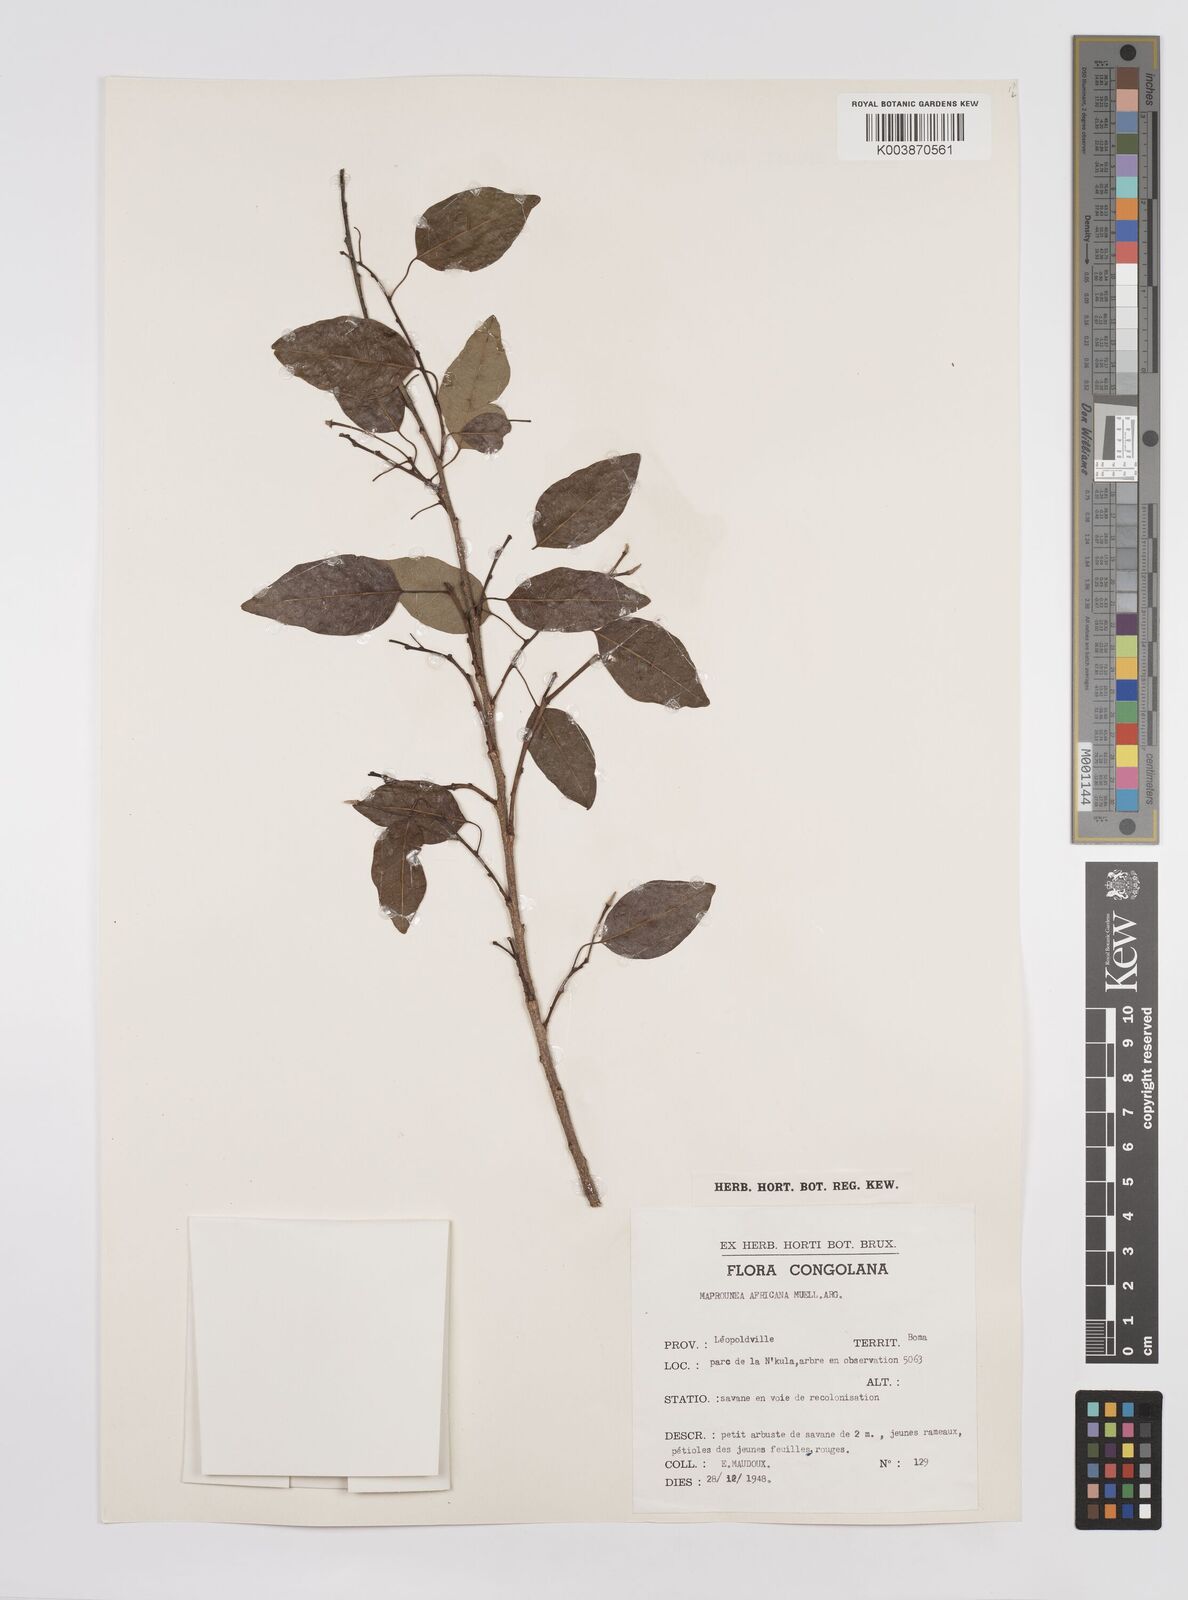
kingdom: Plantae
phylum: Tracheophyta
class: Magnoliopsida
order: Malpighiales
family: Euphorbiaceae
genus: Maprounea
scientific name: Maprounea africana
